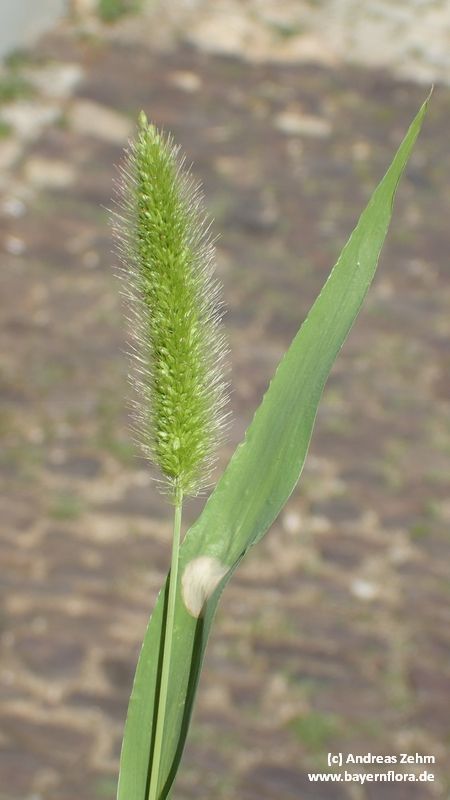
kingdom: Plantae
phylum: Tracheophyta
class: Liliopsida
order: Poales
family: Poaceae
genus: Setaria
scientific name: Setaria italica
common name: Foxtail bristle-grass
